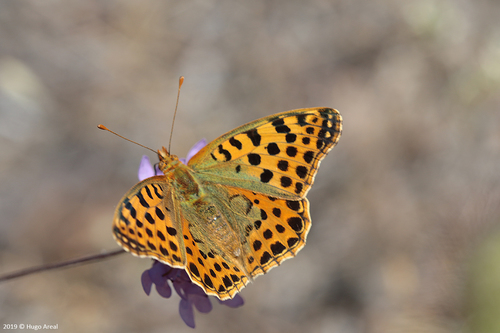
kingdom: Animalia
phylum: Arthropoda
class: Insecta
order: Lepidoptera
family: Nymphalidae
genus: Issoria
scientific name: Issoria lathonia
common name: Queen of spain fritillary
